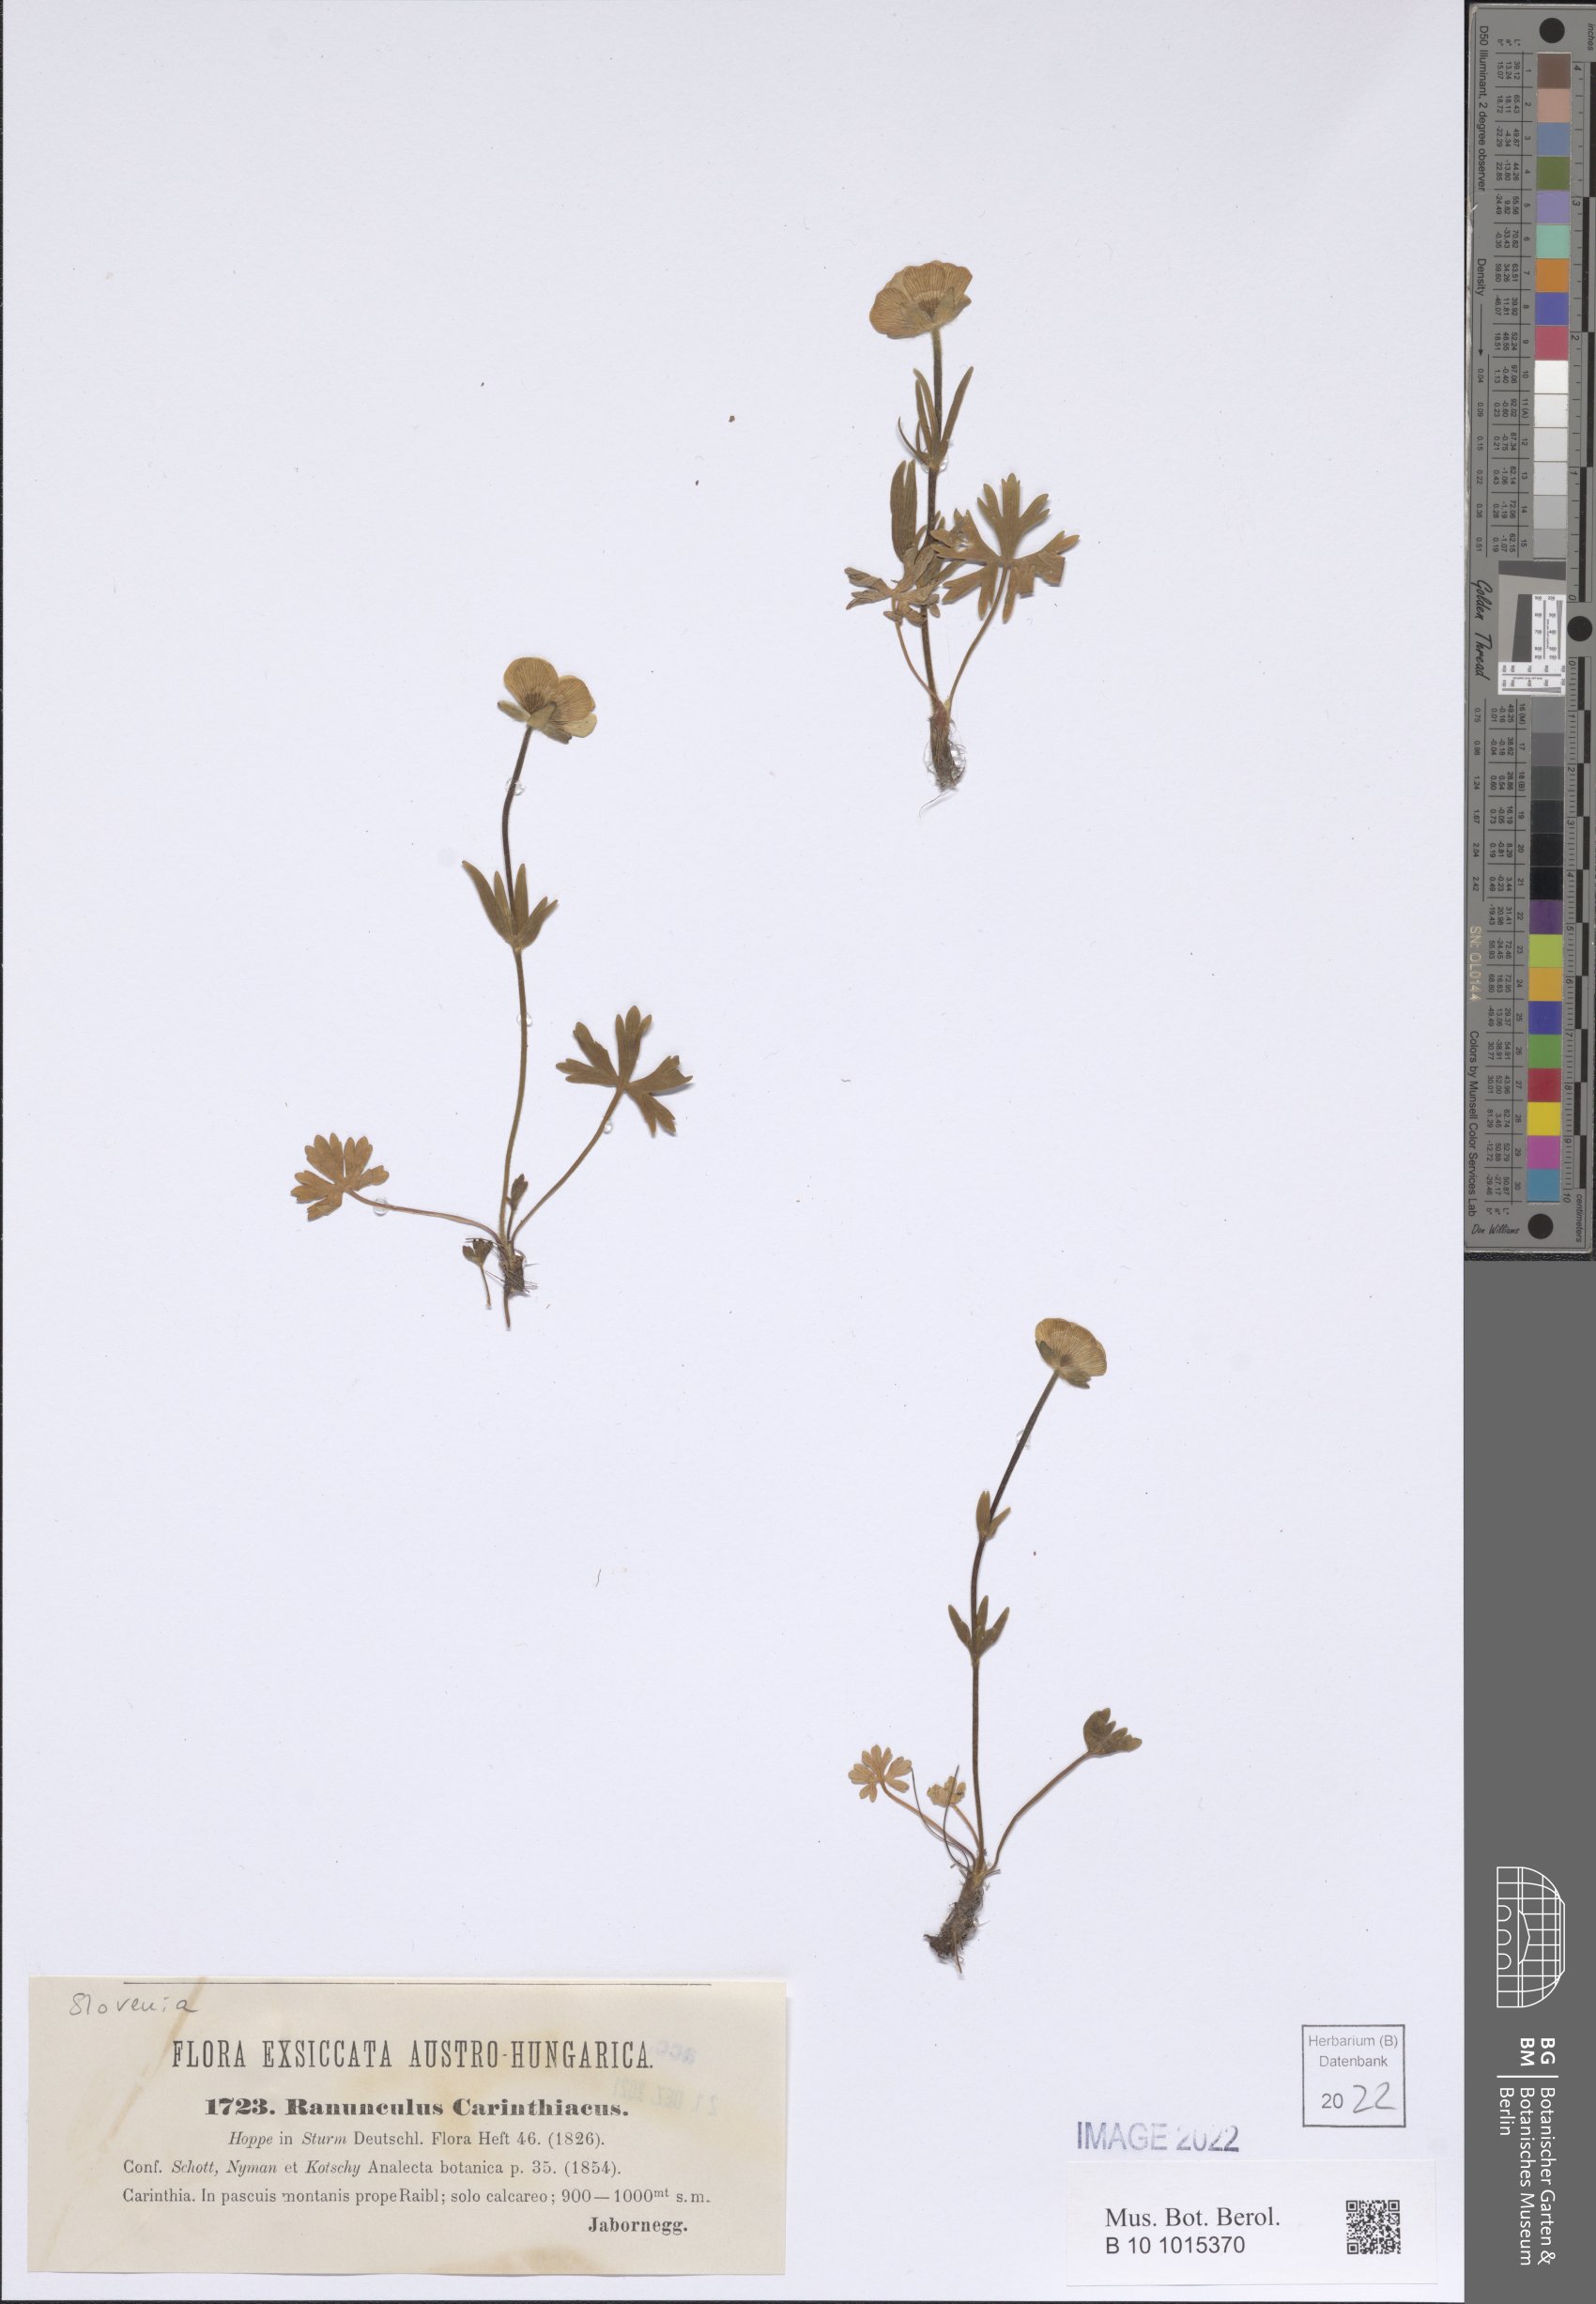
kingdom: Plantae
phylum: Tracheophyta
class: Magnoliopsida
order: Ranunculales
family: Ranunculaceae
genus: Ranunculus
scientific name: Ranunculus carinthiacus
